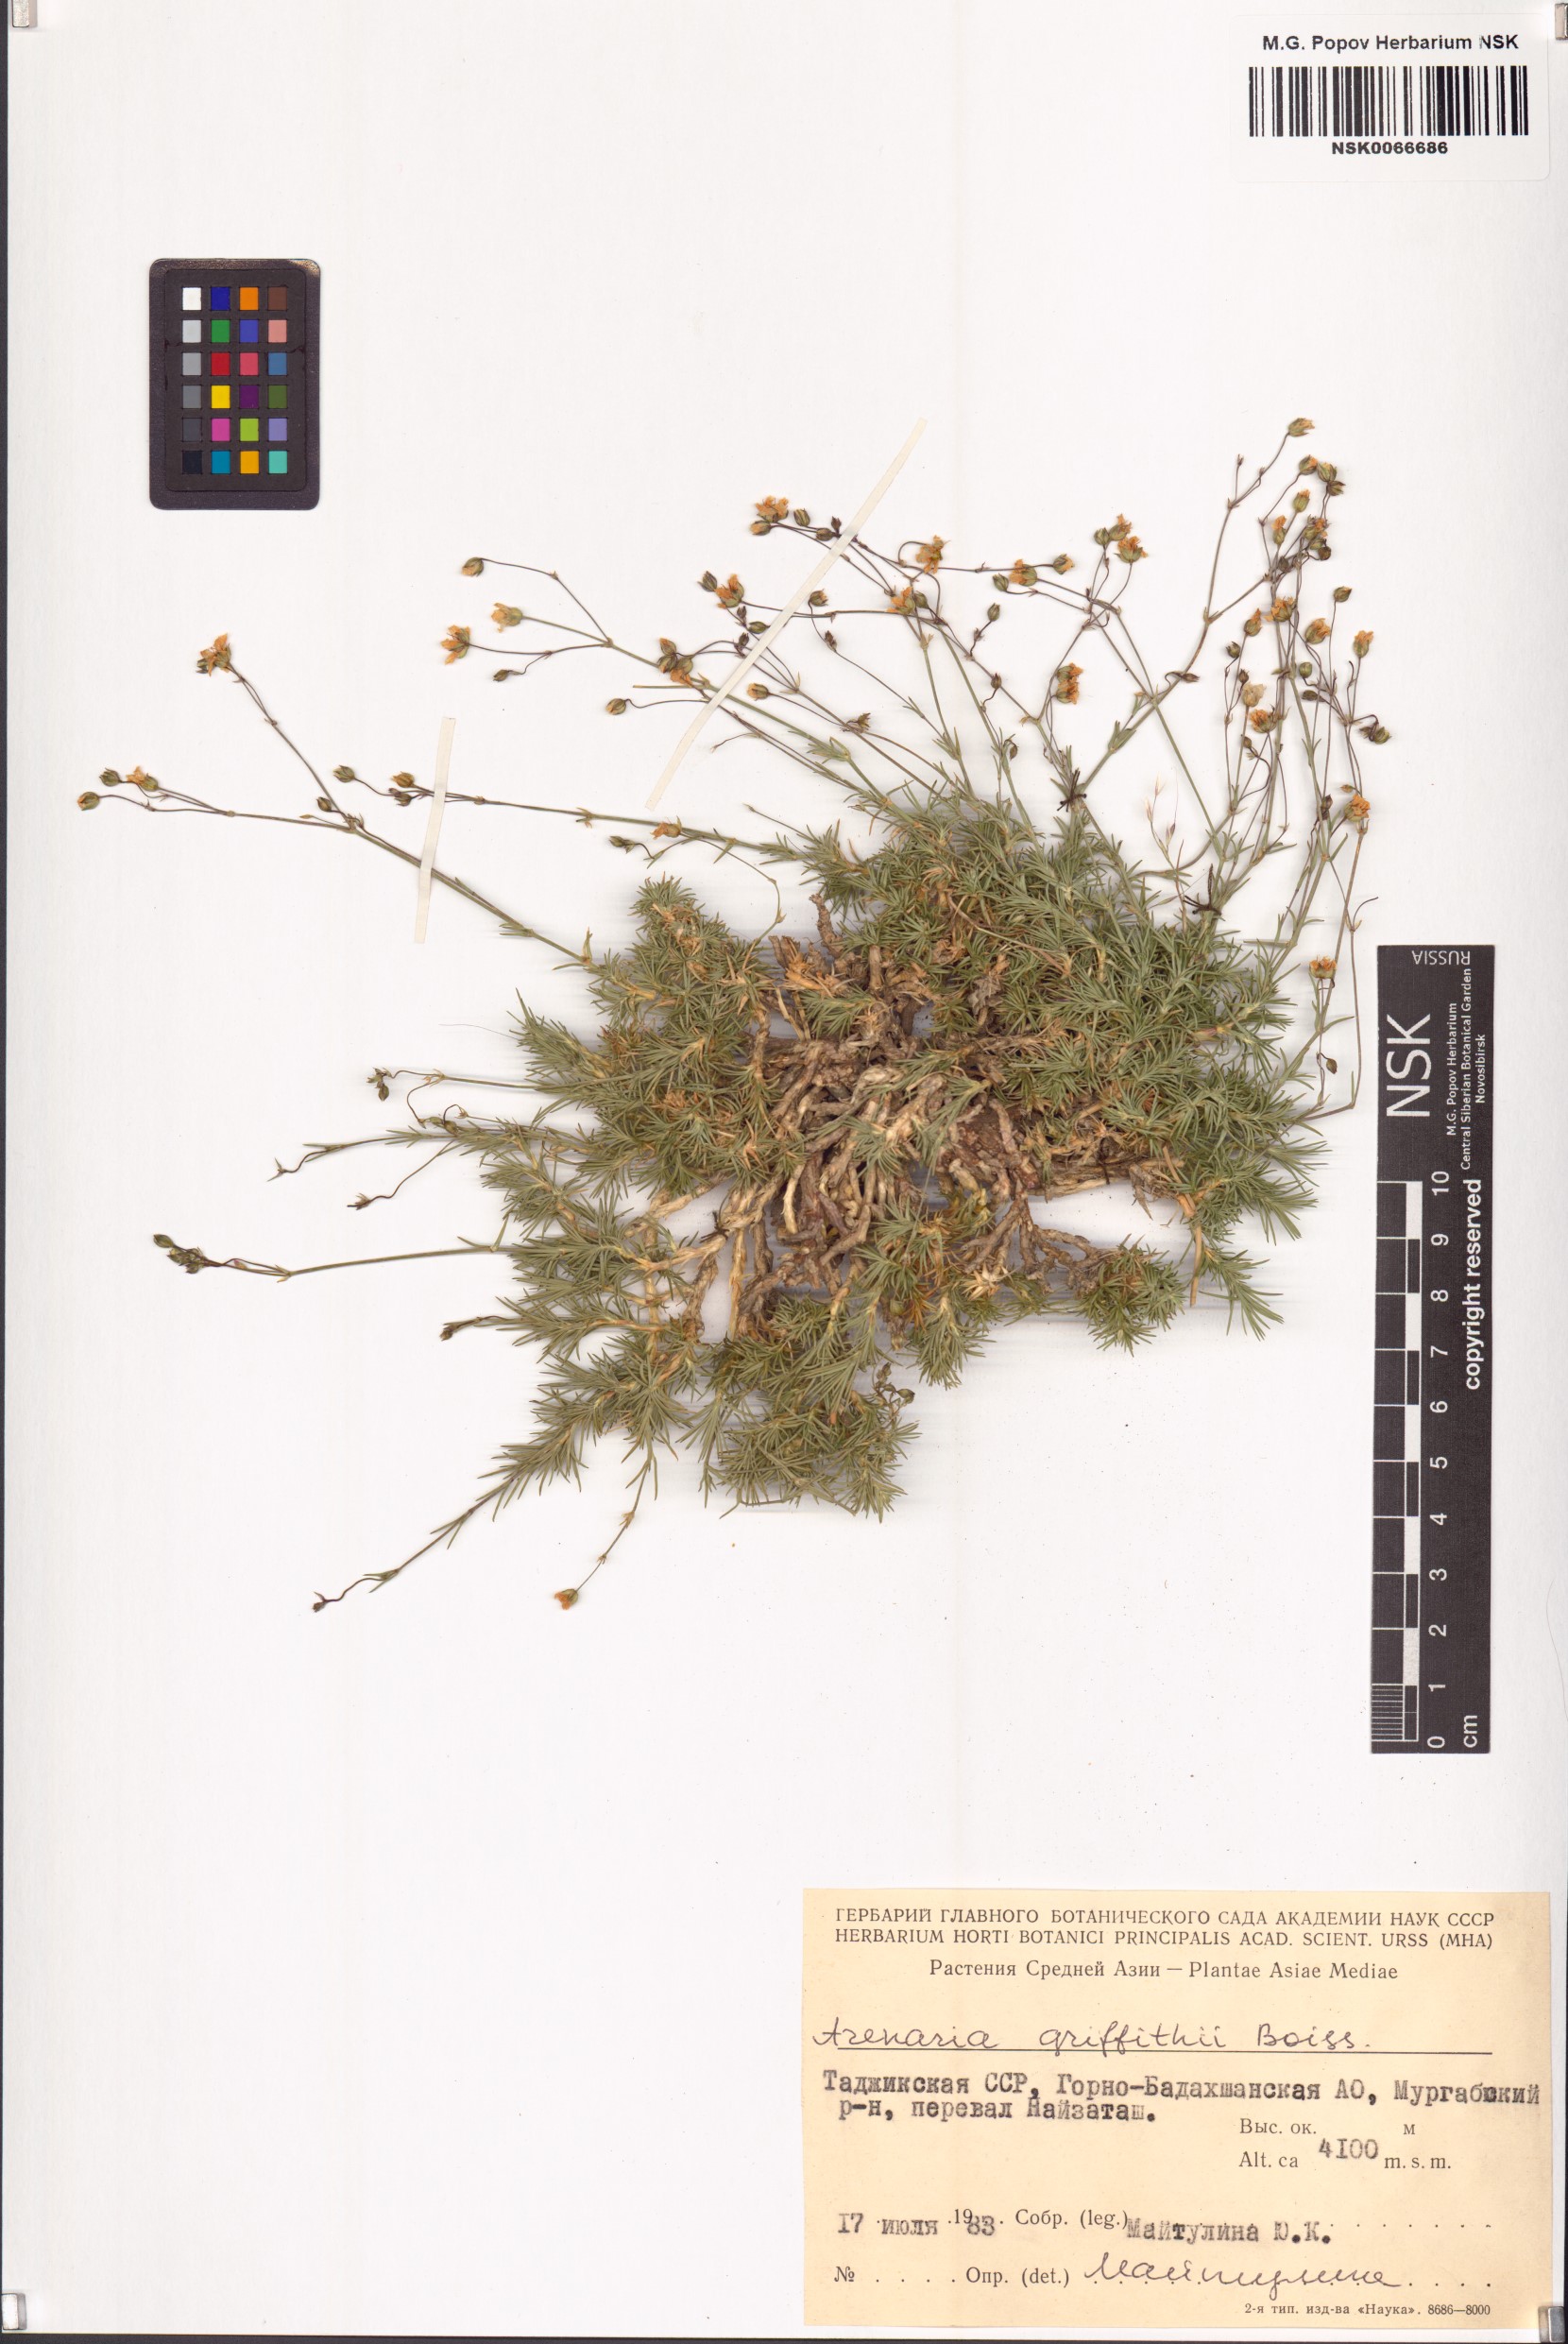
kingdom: Plantae
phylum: Tracheophyta
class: Magnoliopsida
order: Caryophyllales
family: Caryophyllaceae
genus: Eremogone
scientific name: Eremogone griffithii
